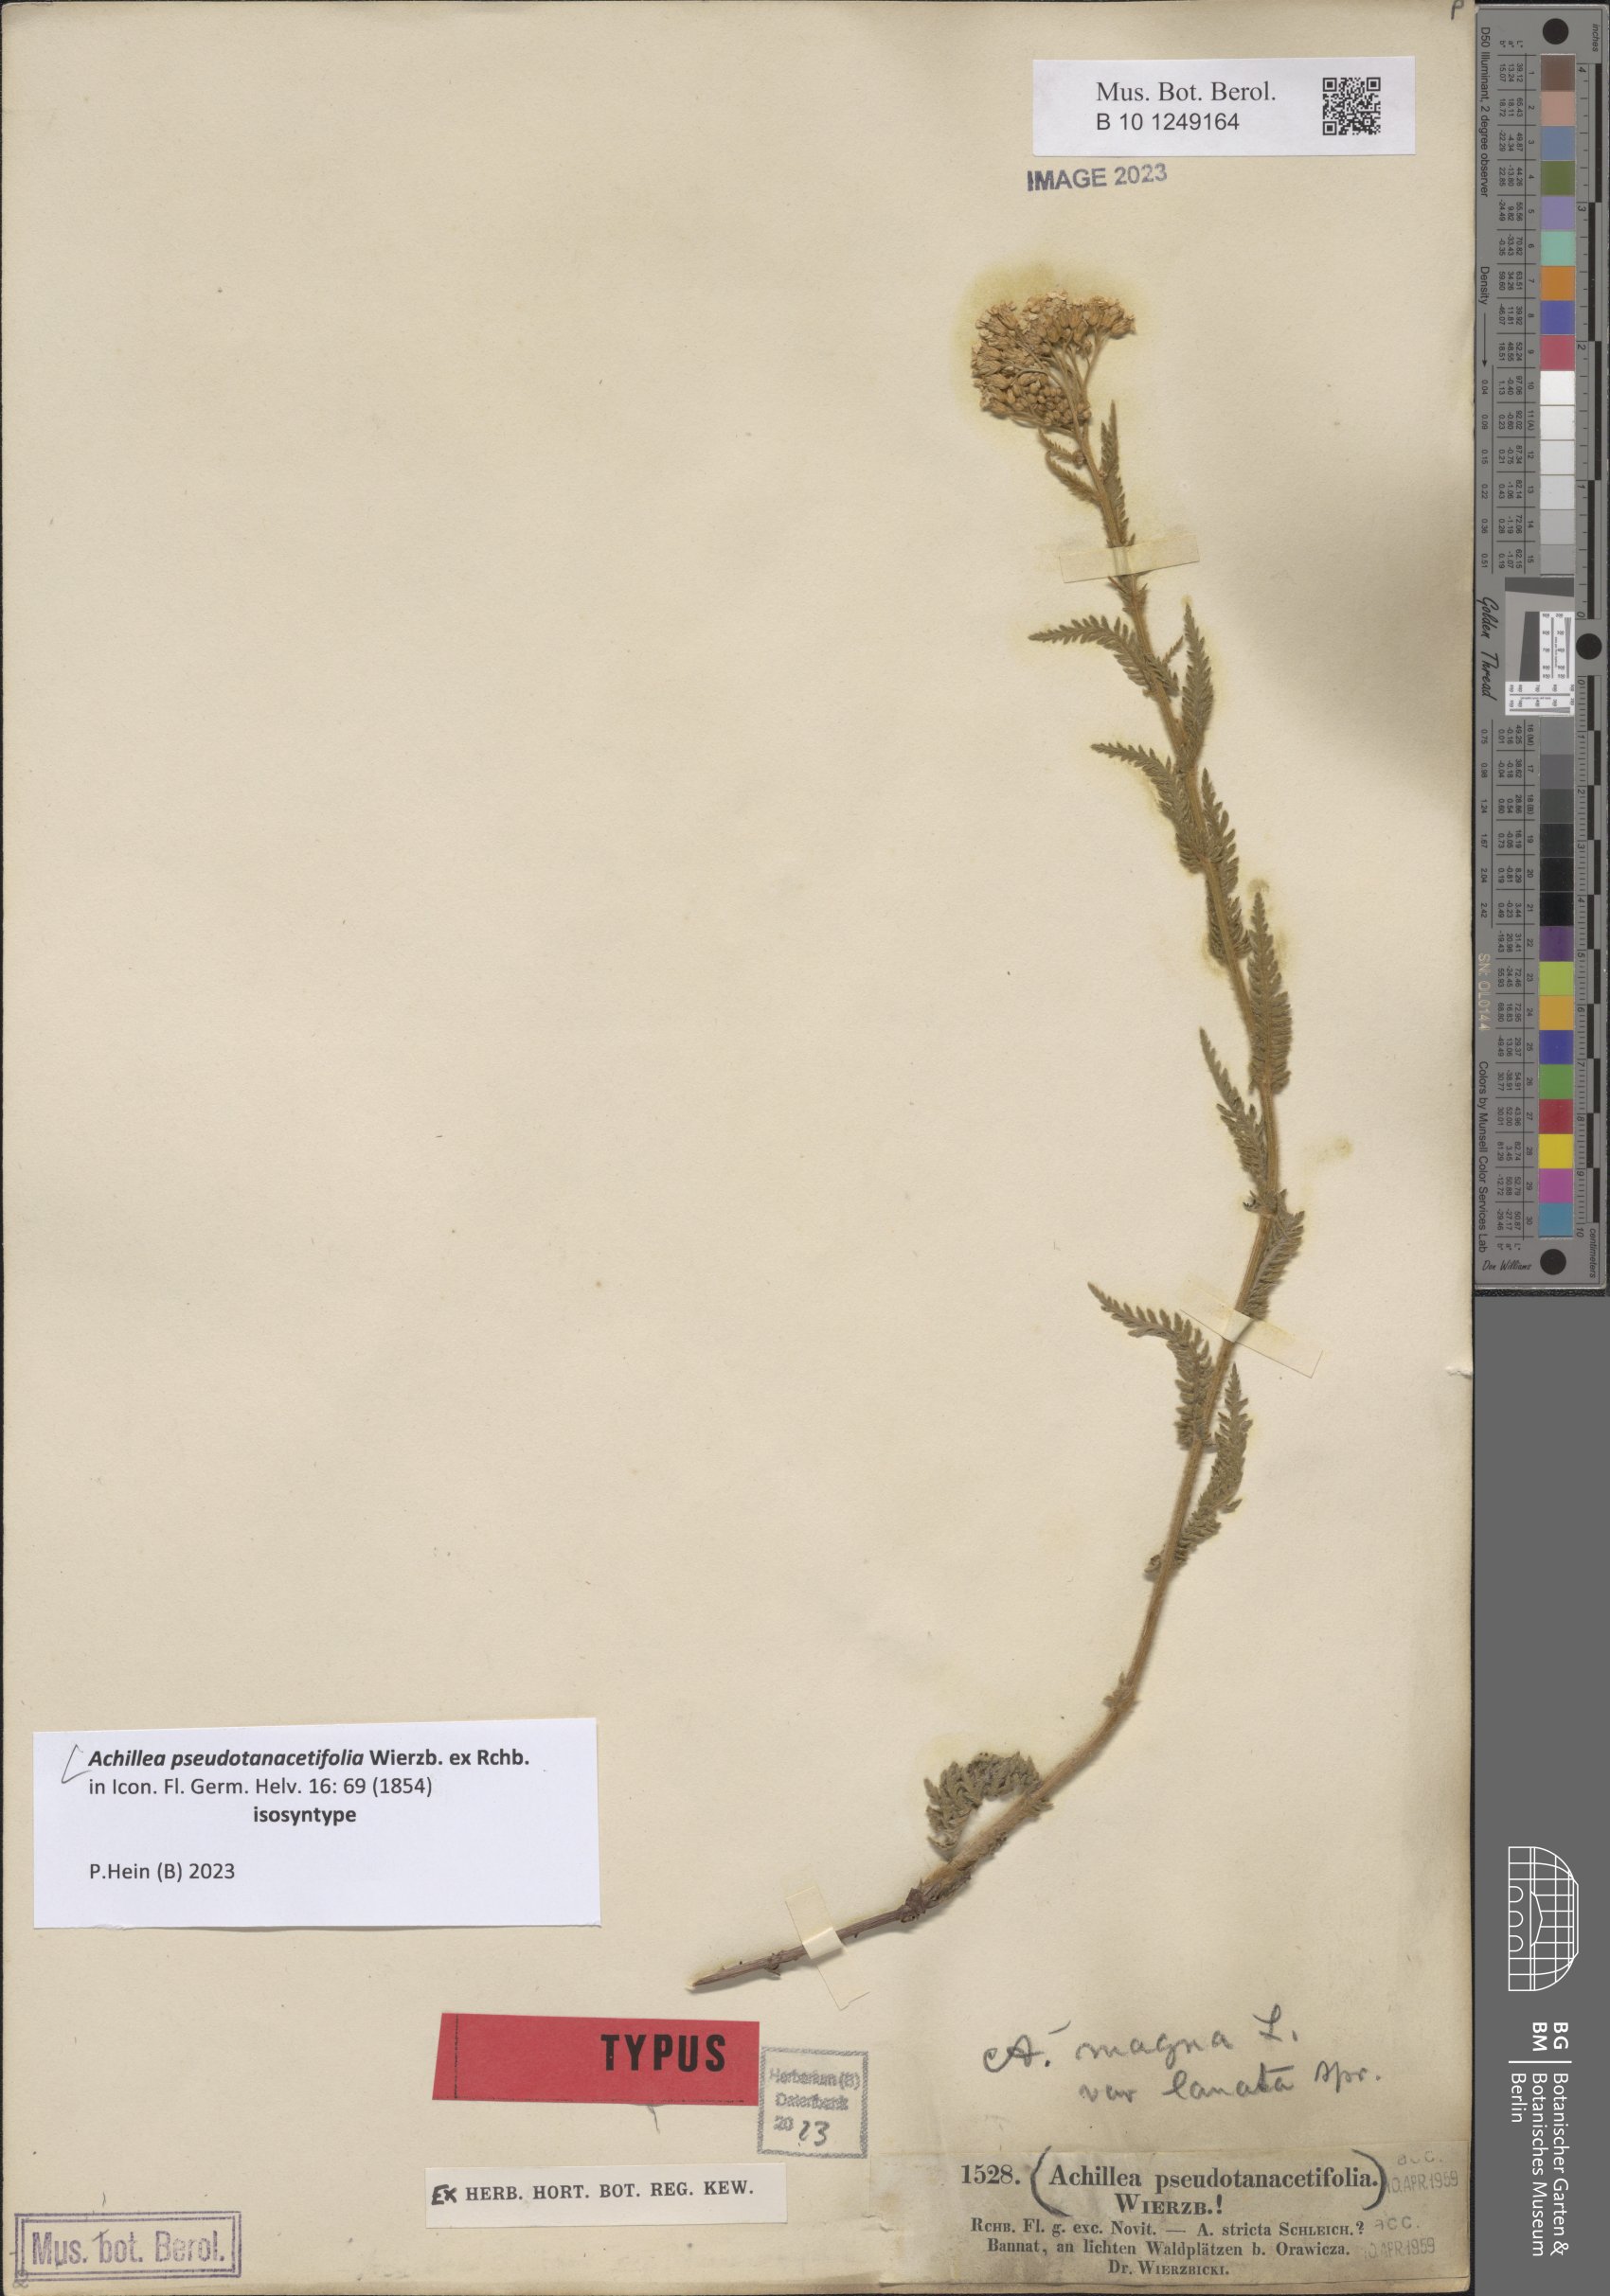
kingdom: Plantae
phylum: Tracheophyta
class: Magnoliopsida
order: Asterales
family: Asteraceae
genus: Achillea
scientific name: Achillea millefolium
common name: Yarrow
